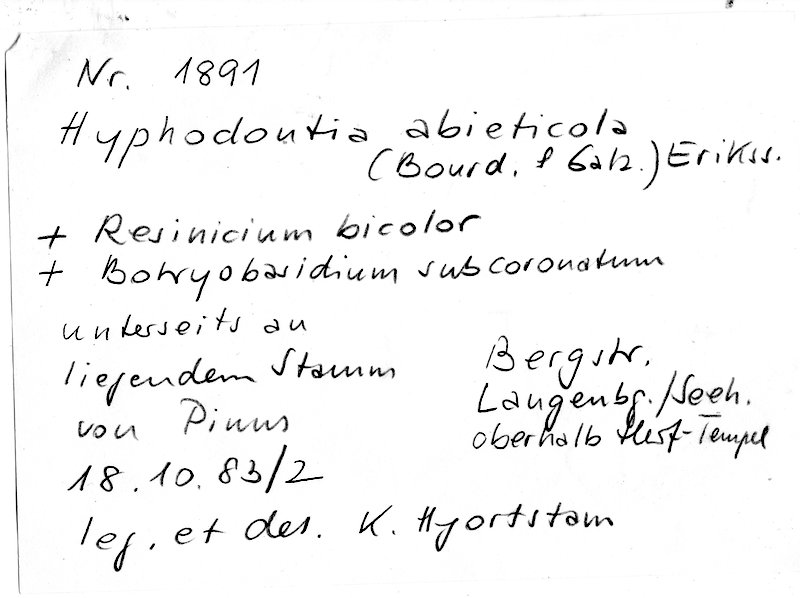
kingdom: Plantae
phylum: Tracheophyta
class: Pinopsida
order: Pinales
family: Pinaceae
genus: Pinus
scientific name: Pinus
